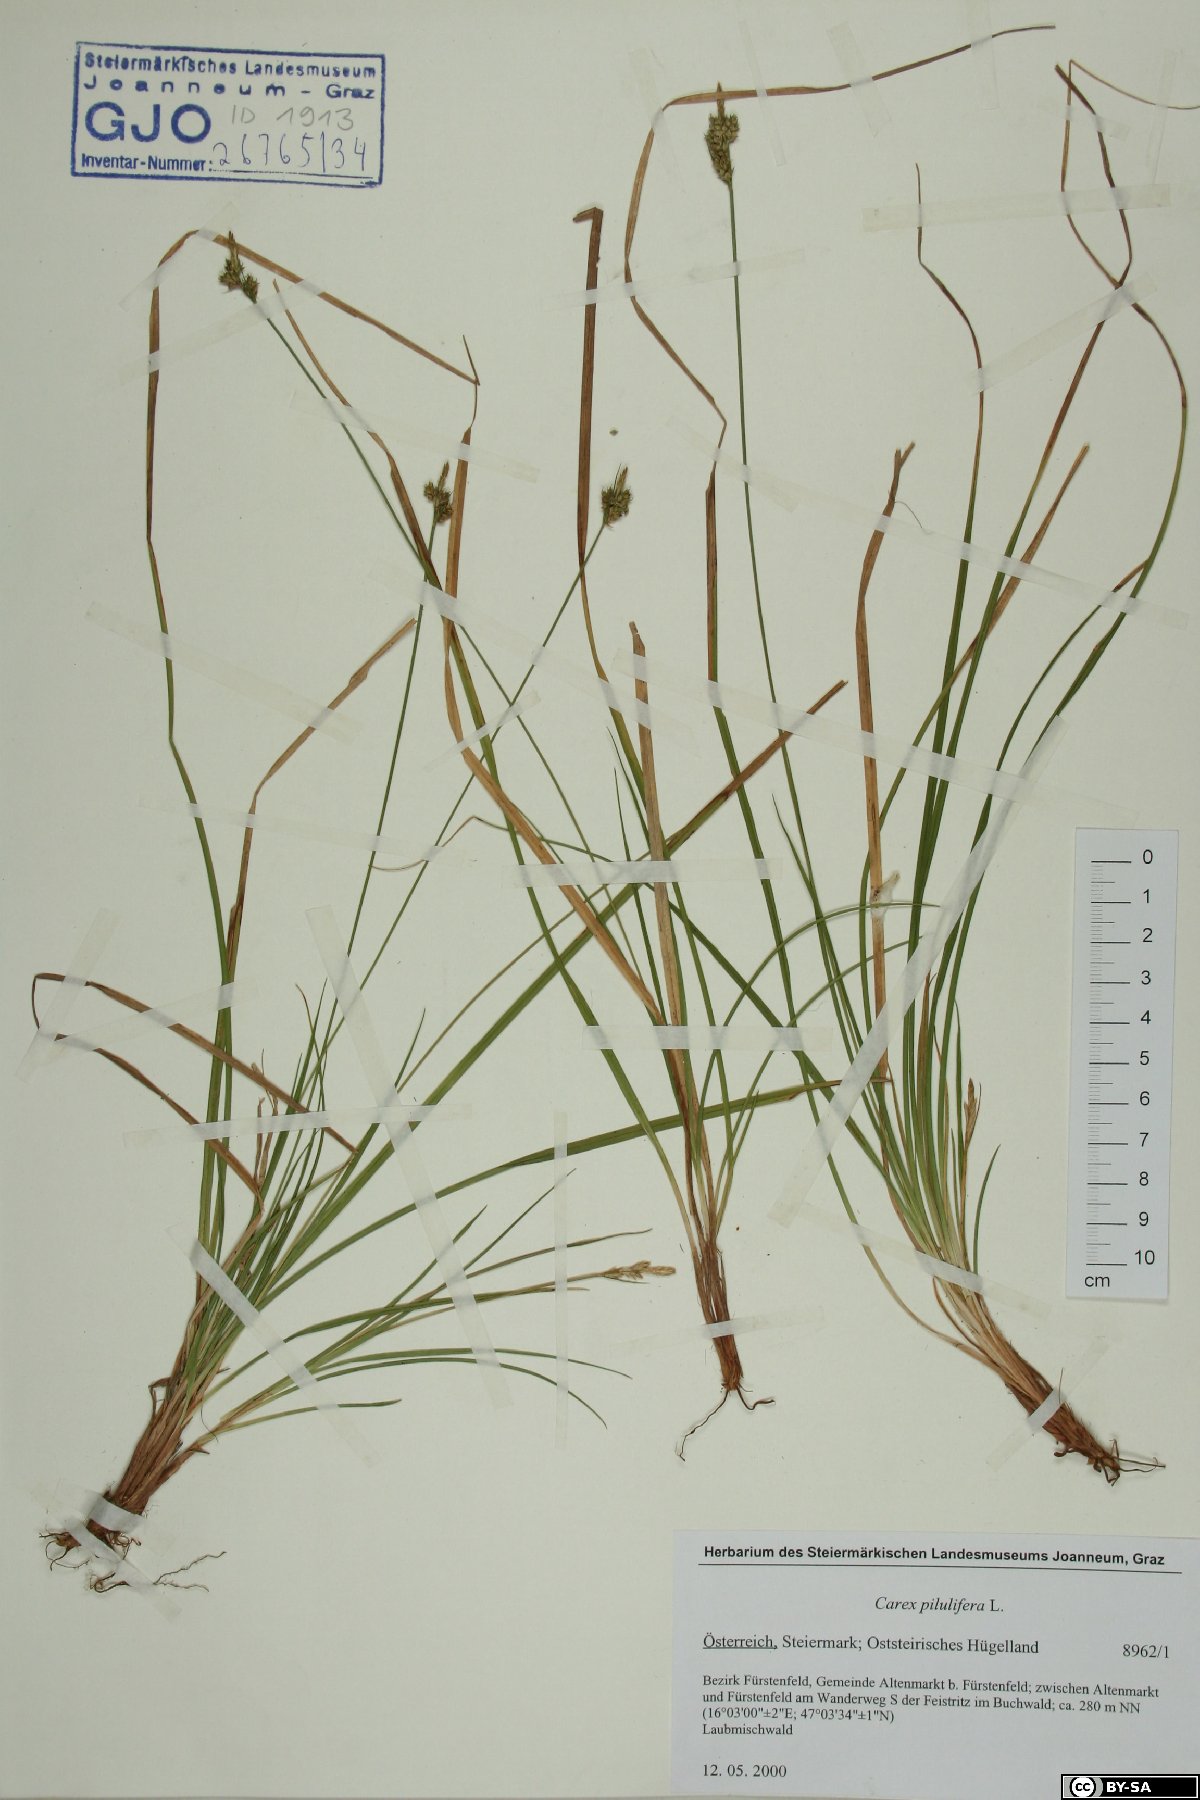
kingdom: Plantae
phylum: Tracheophyta
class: Liliopsida
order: Poales
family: Cyperaceae
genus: Carex
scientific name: Carex pilulifera
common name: Pill sedge
